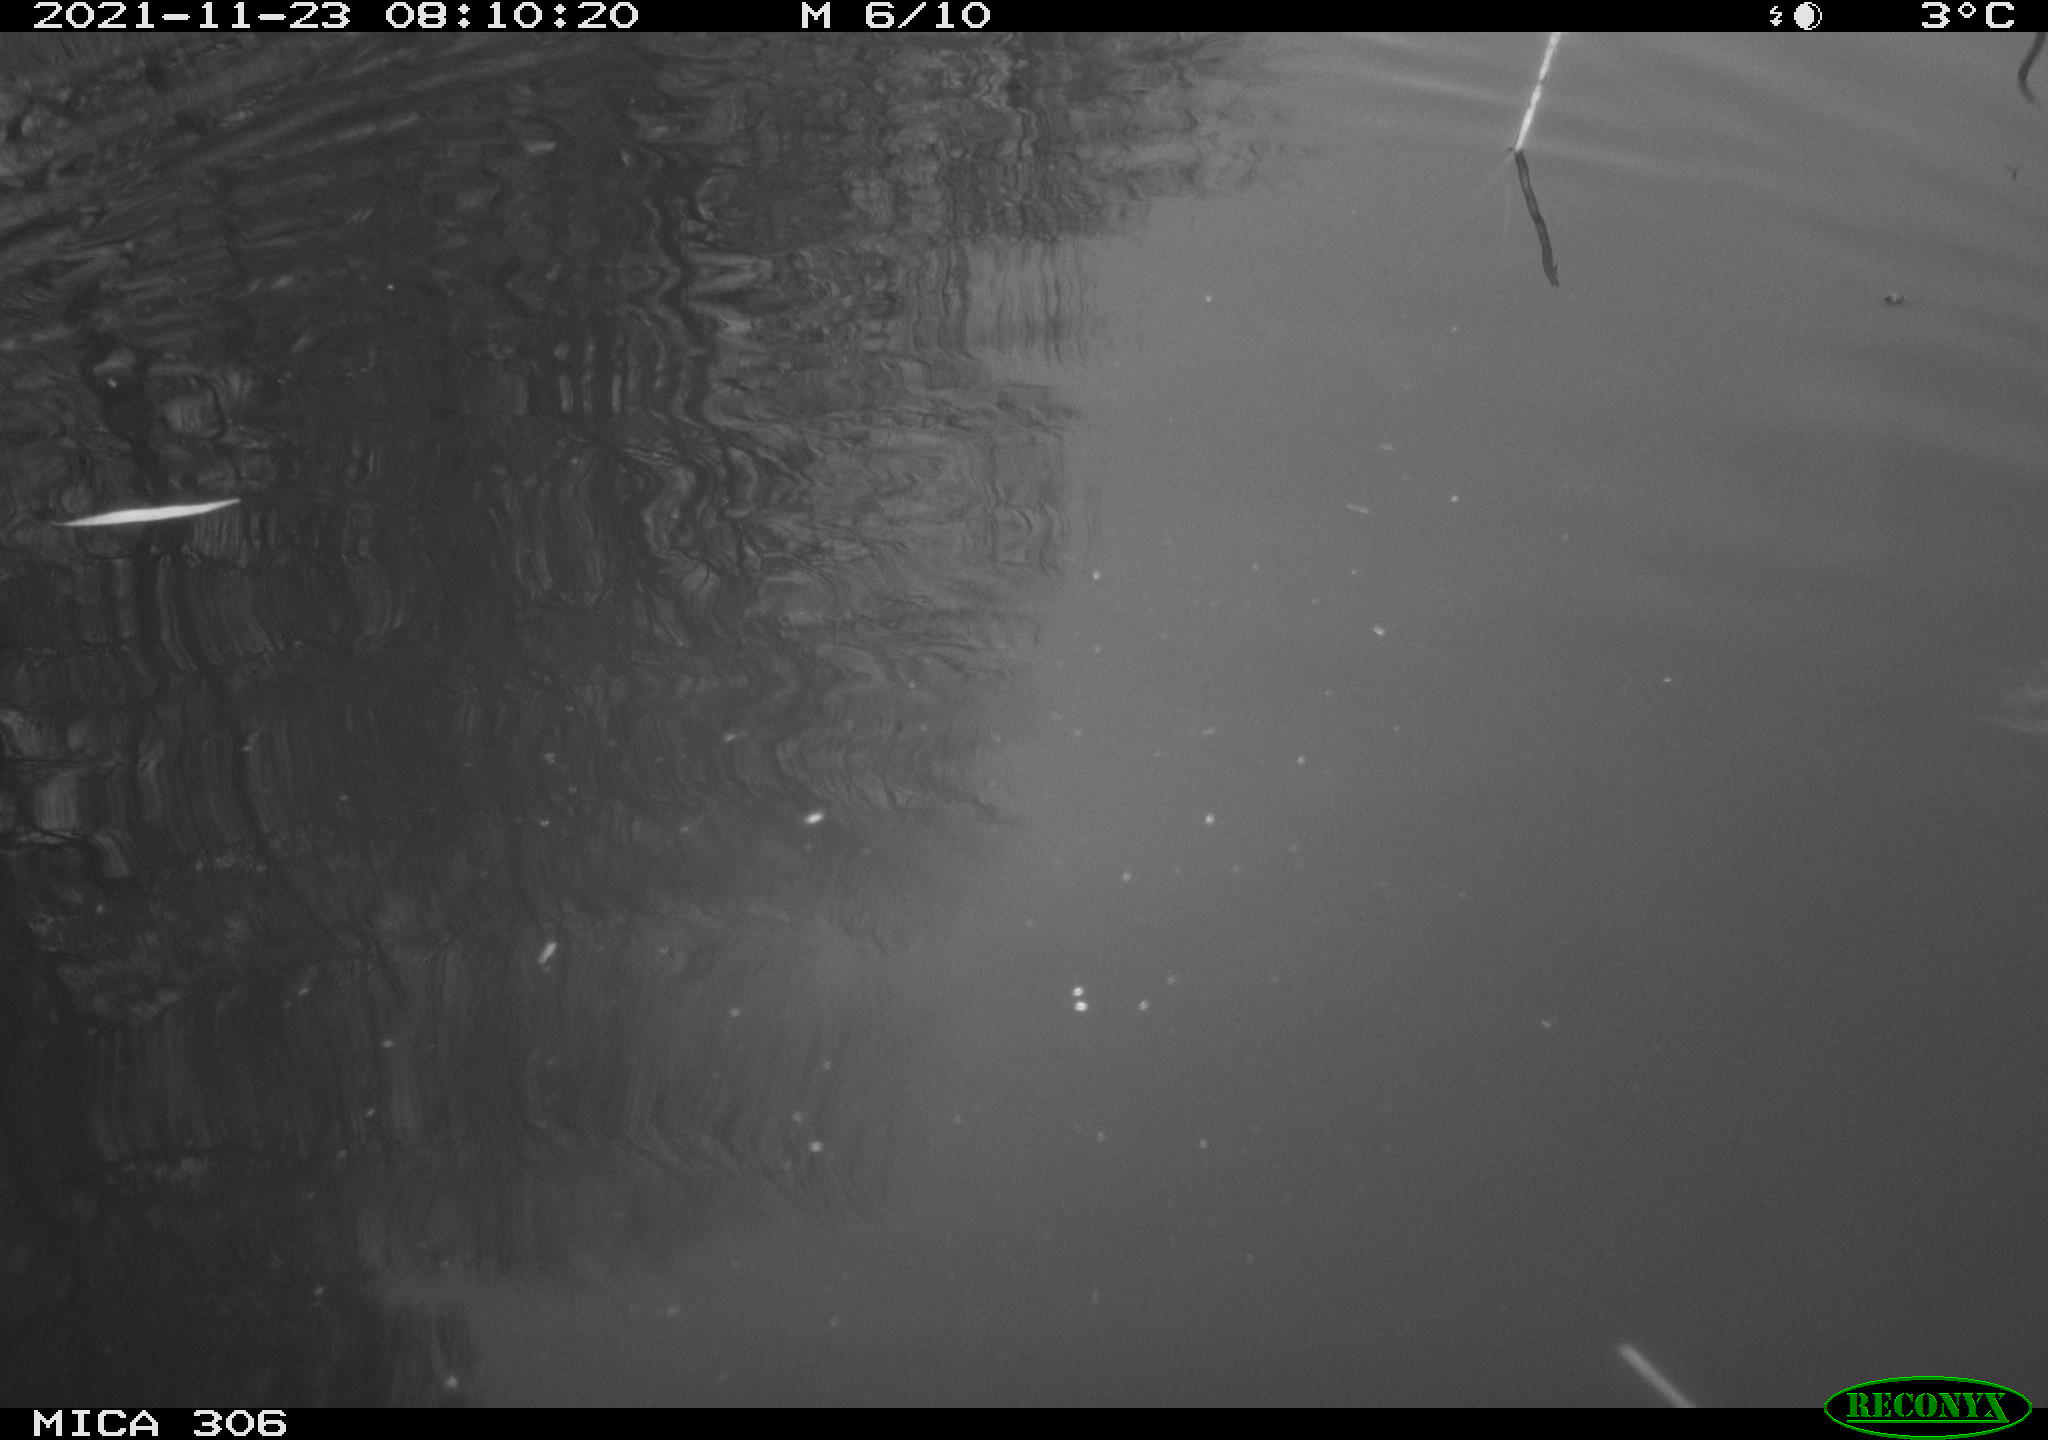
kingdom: Animalia
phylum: Chordata
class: Aves
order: Gruiformes
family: Rallidae
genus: Fulica
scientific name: Fulica atra
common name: Eurasian coot
